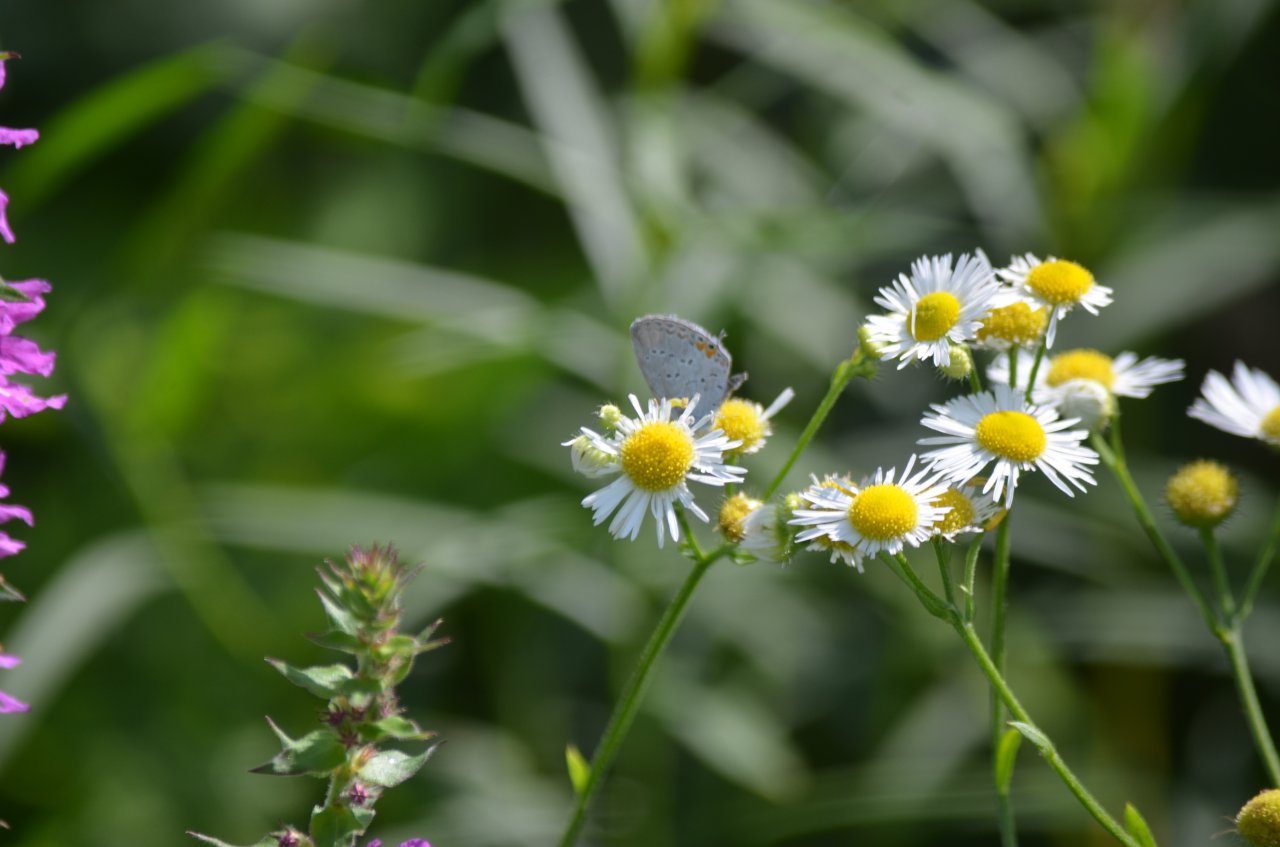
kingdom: Animalia
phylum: Arthropoda
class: Insecta
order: Lepidoptera
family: Lycaenidae
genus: Elkalyce
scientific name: Elkalyce comyntas
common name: Eastern Tailed-Blue
